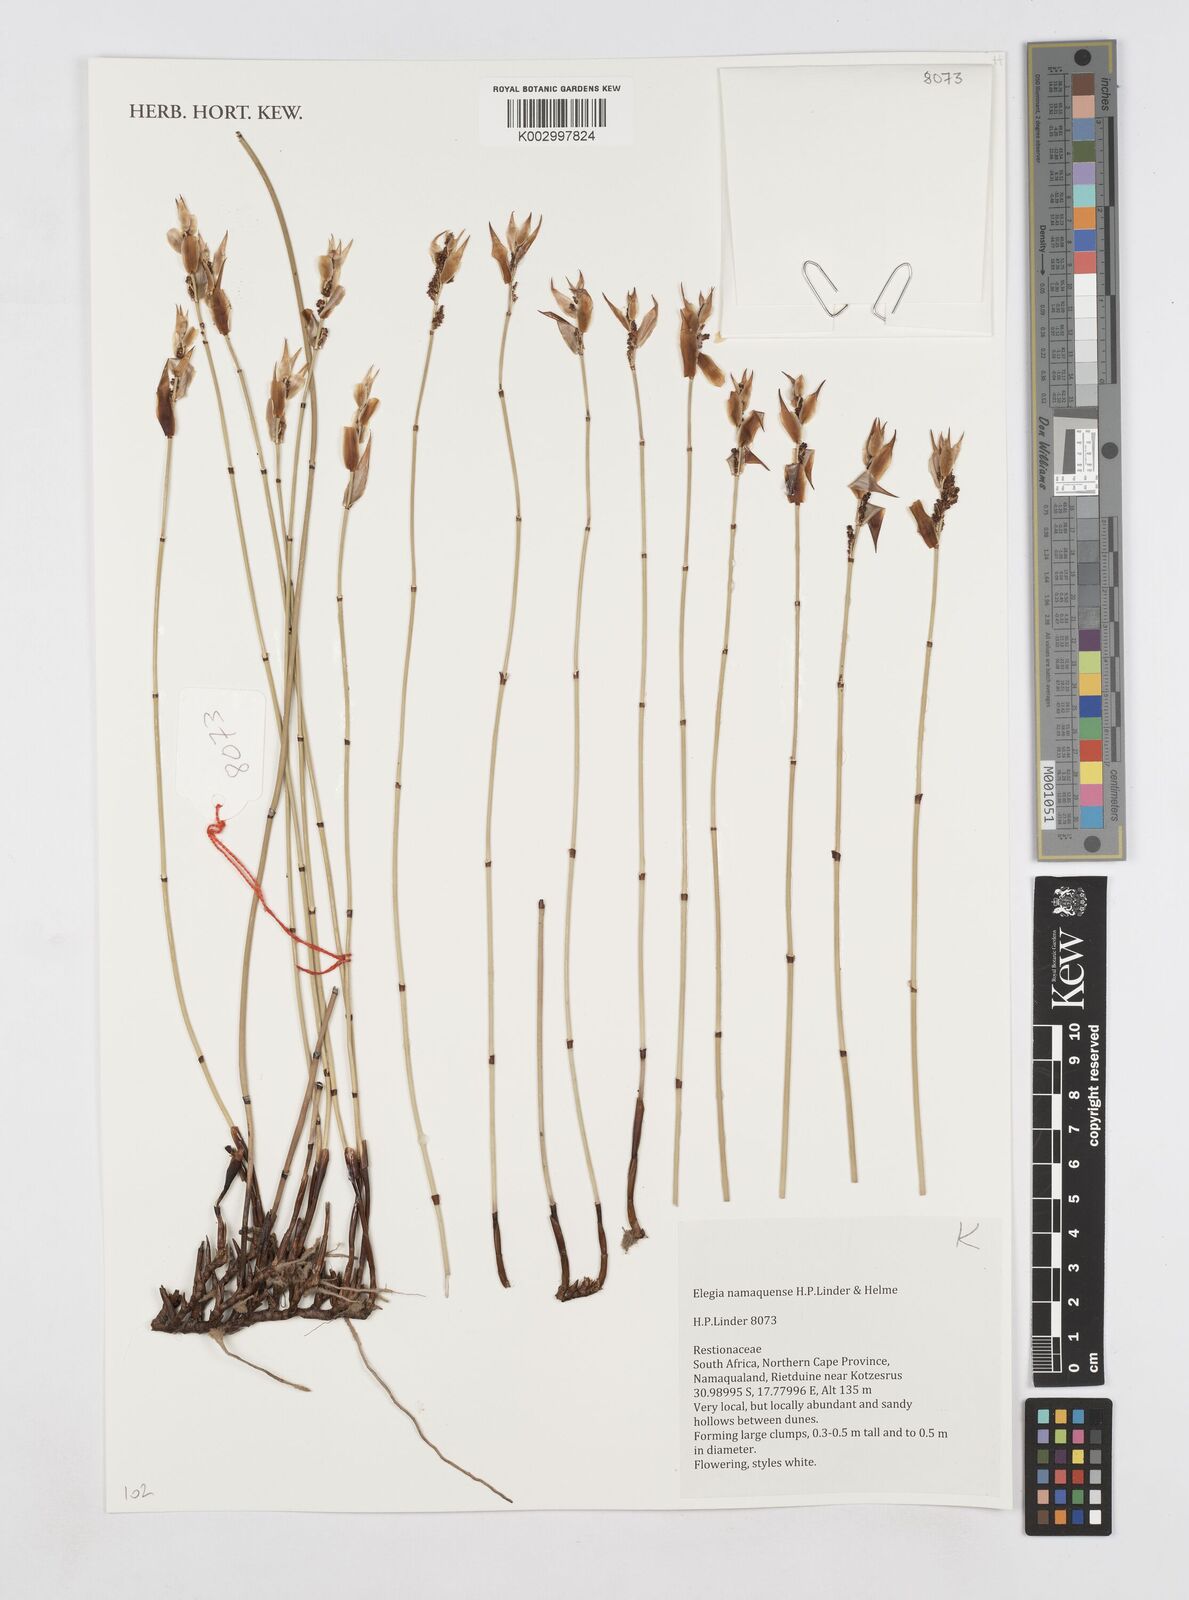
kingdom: Plantae
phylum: Tracheophyta
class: Liliopsida
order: Poales
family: Restionaceae
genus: Elegia
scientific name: Elegia namaquense
